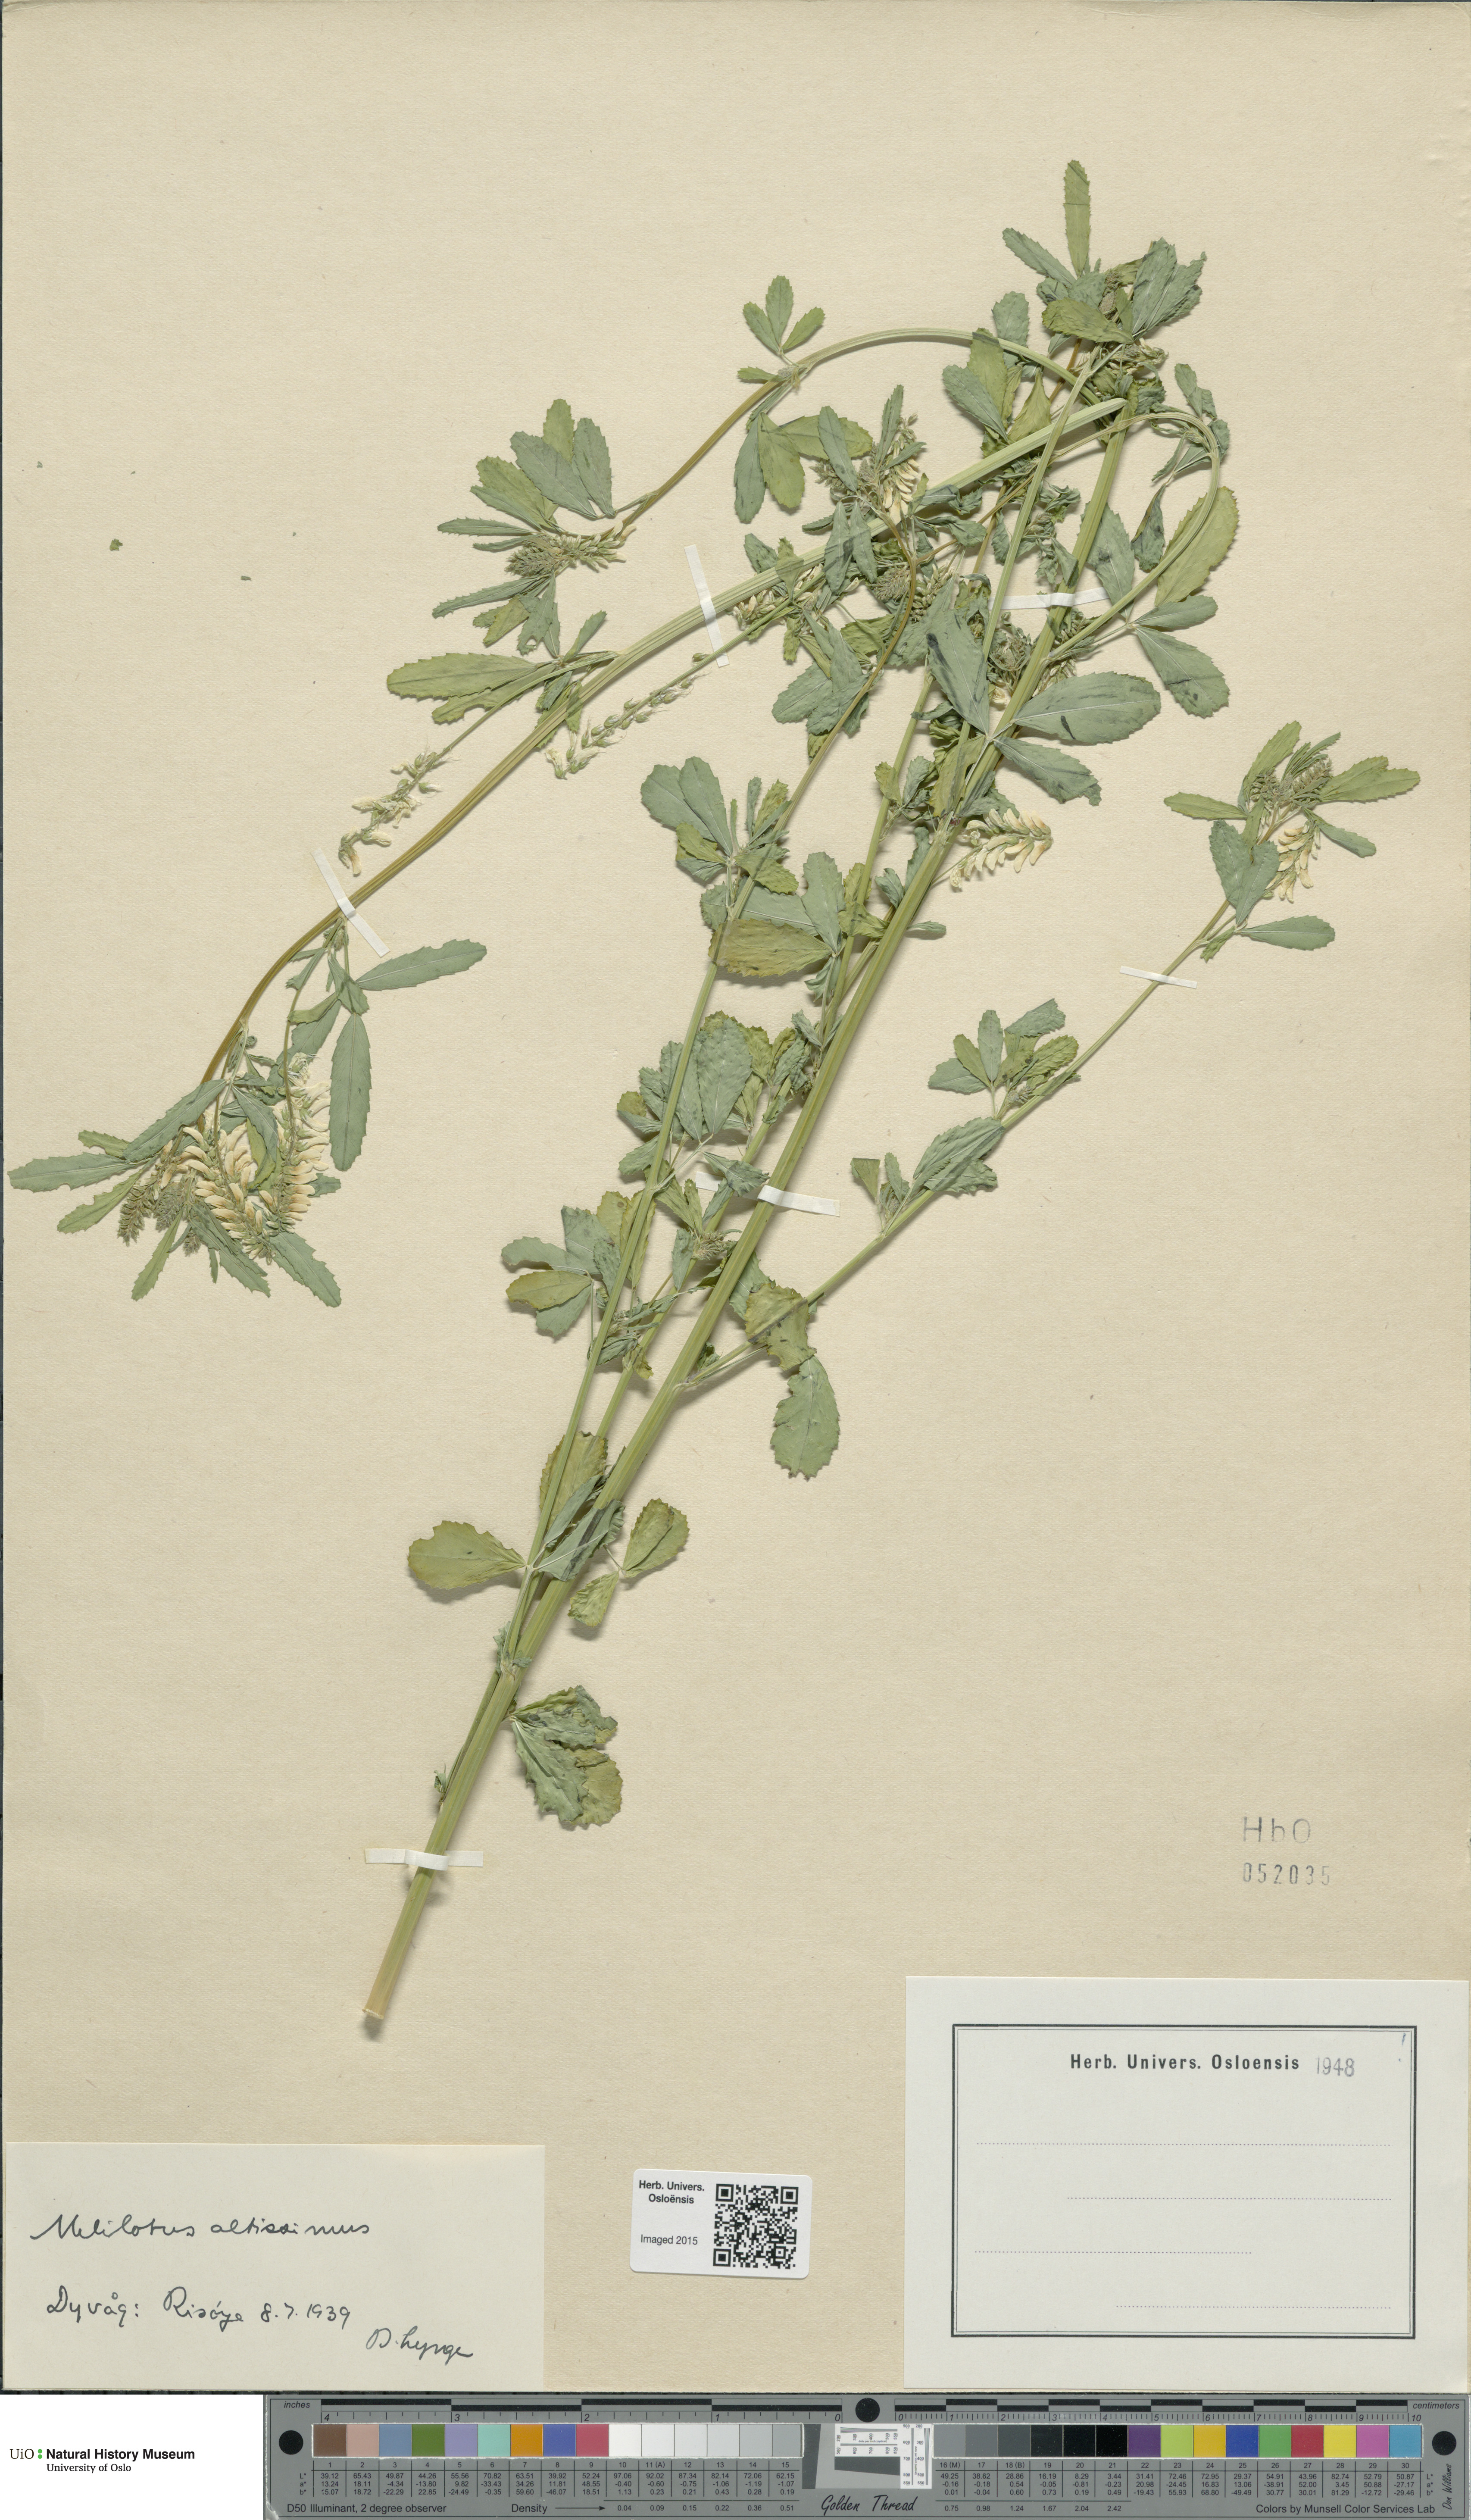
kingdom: Plantae
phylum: Tracheophyta
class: Magnoliopsida
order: Fabales
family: Fabaceae
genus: Melilotus
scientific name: Melilotus altissimus
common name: Tall melilot
